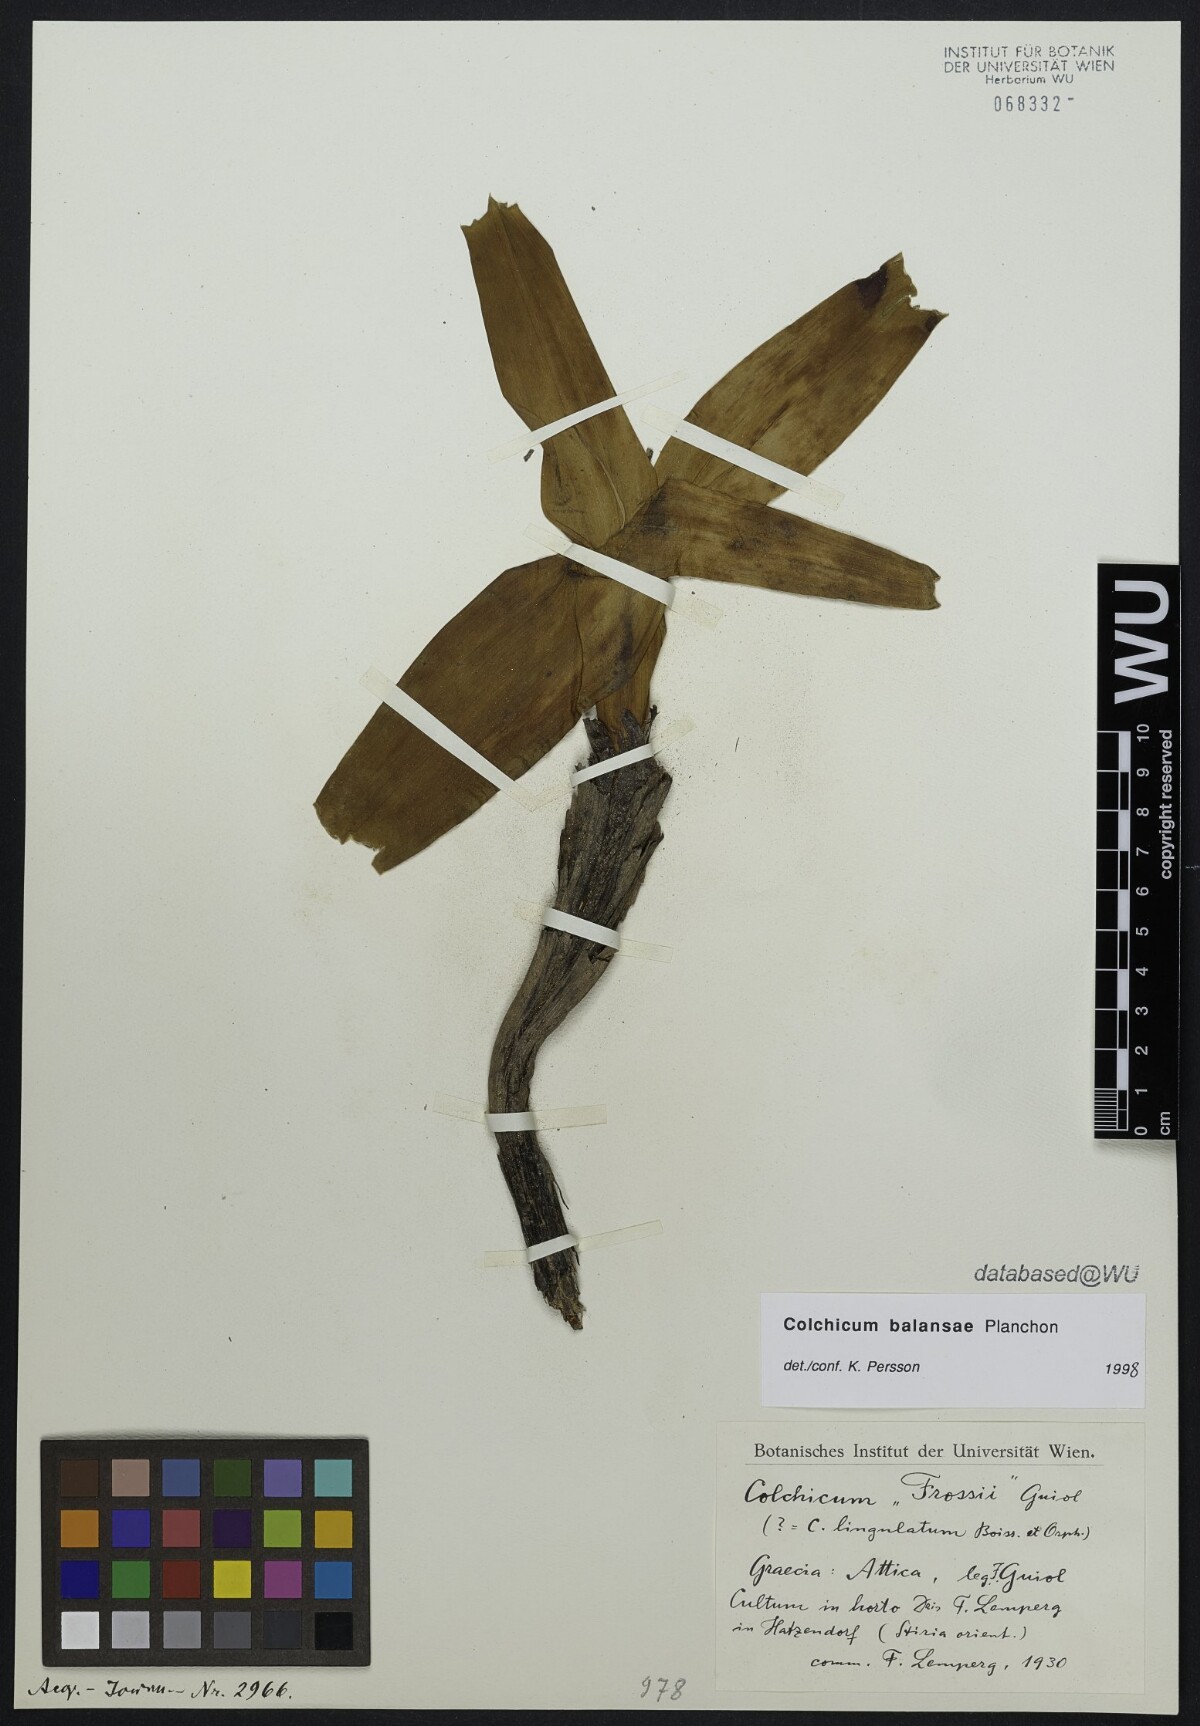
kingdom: Plantae
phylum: Tracheophyta
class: Liliopsida
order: Liliales
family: Colchicaceae
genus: Colchicum
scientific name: Colchicum
